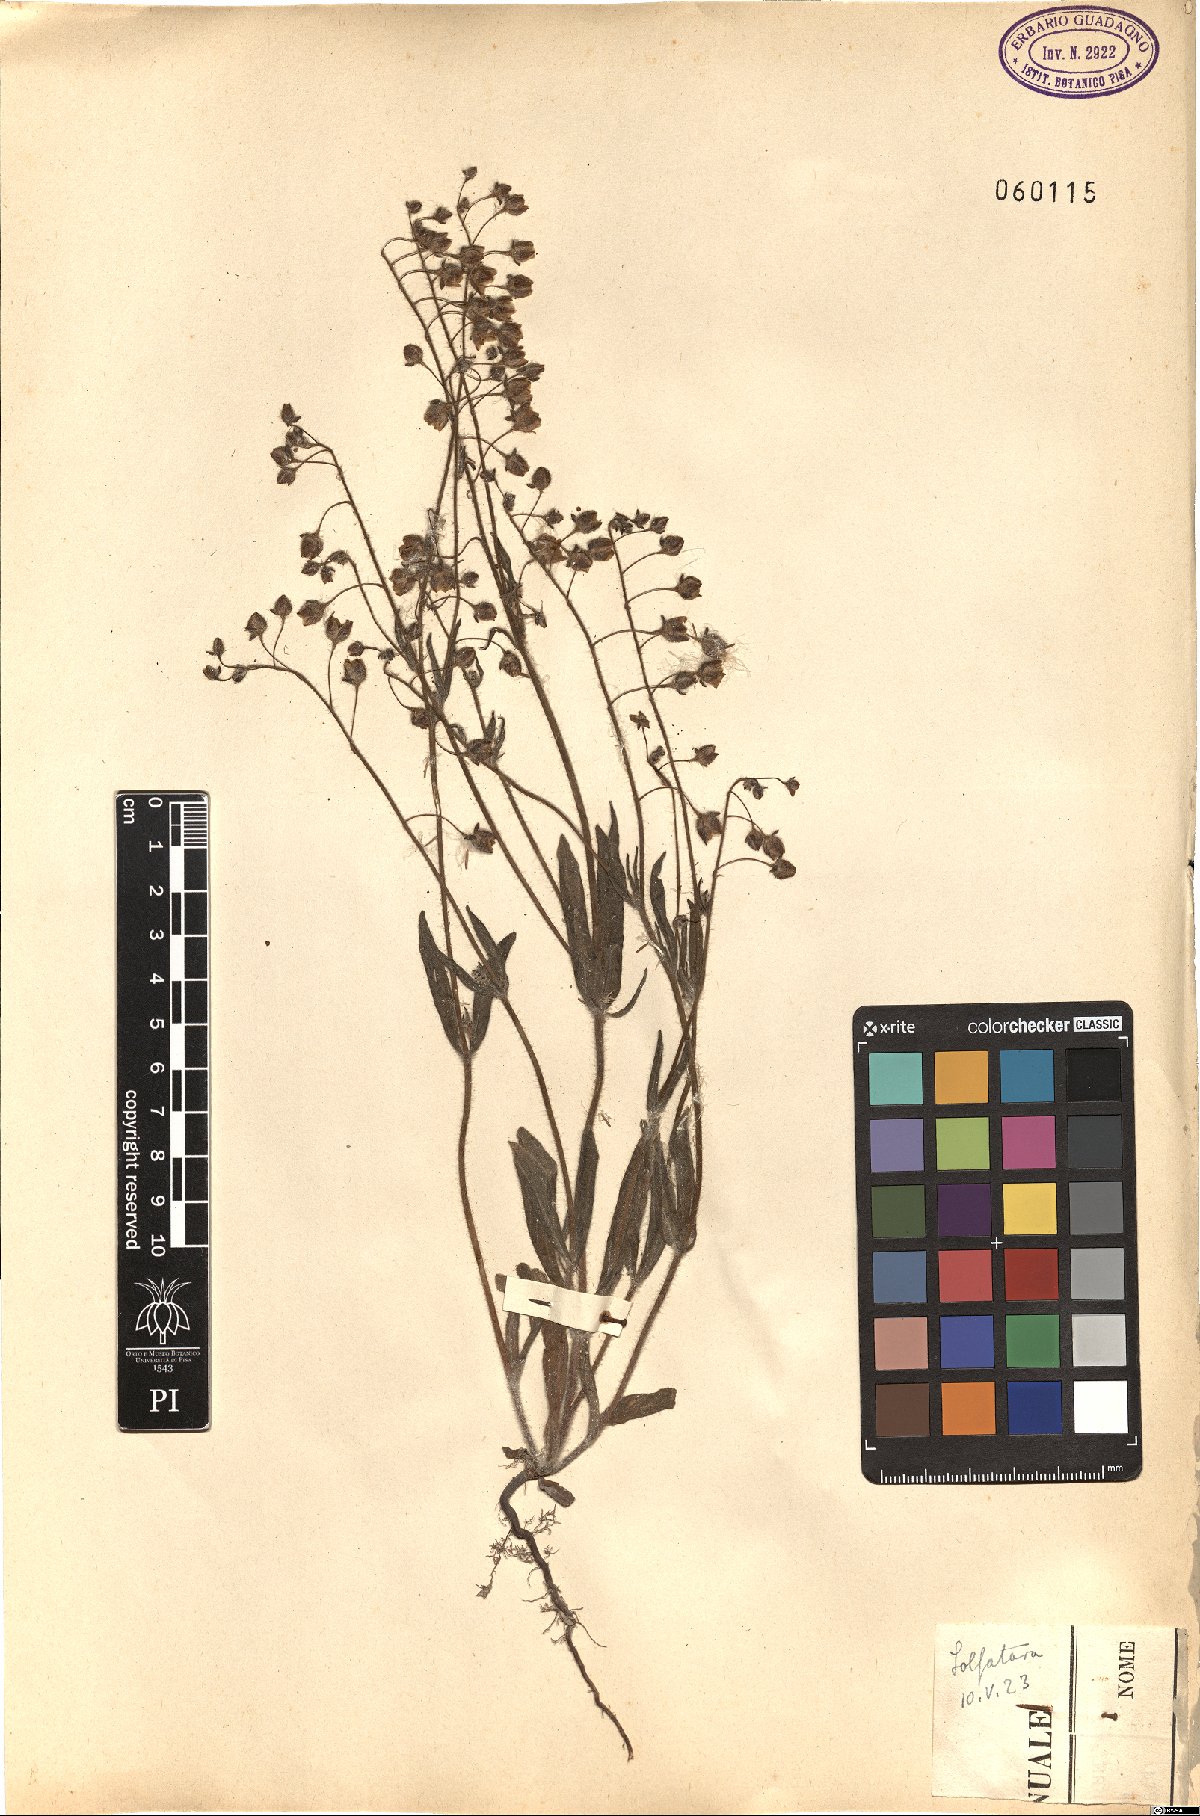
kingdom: Plantae
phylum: Tracheophyta
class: Magnoliopsida
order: Malvales
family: Cistaceae
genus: Tuberaria
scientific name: Tuberaria guttata
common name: Spotted rock-rose
